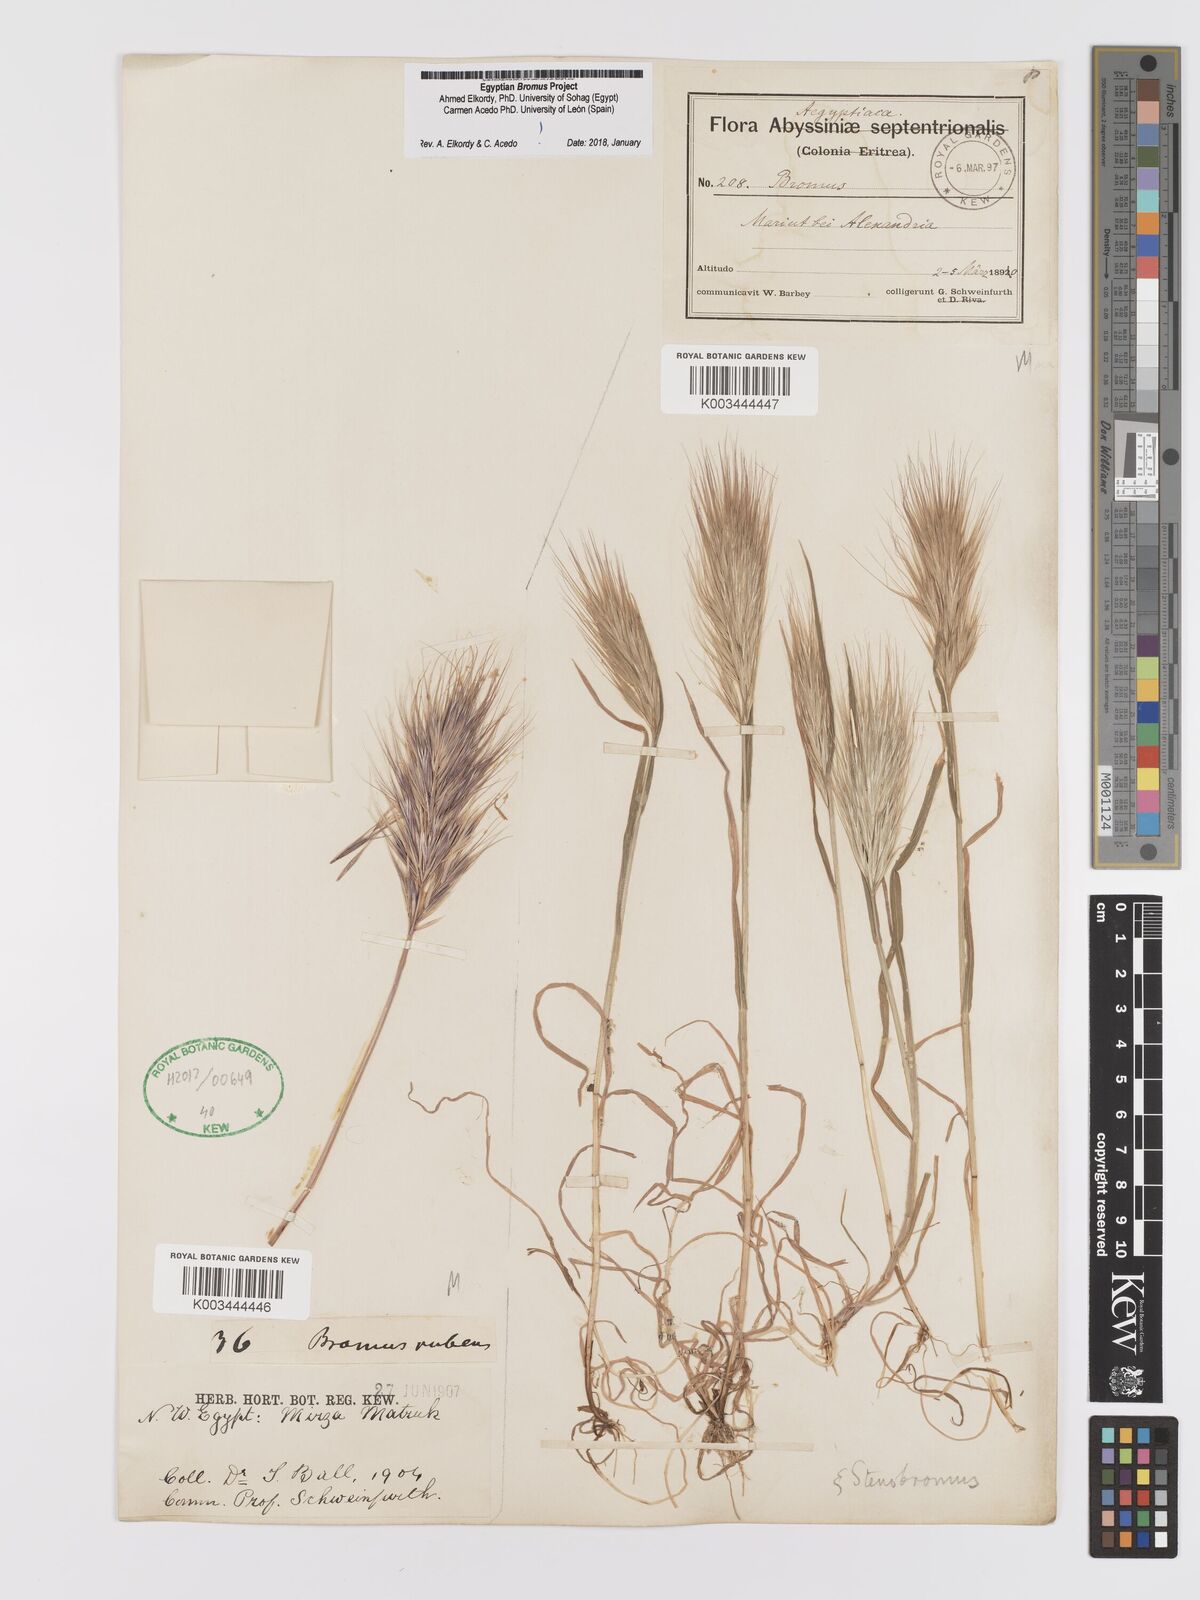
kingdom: Plantae
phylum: Tracheophyta
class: Liliopsida
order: Poales
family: Poaceae
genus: Bromus
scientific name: Bromus rubens
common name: Red brome
